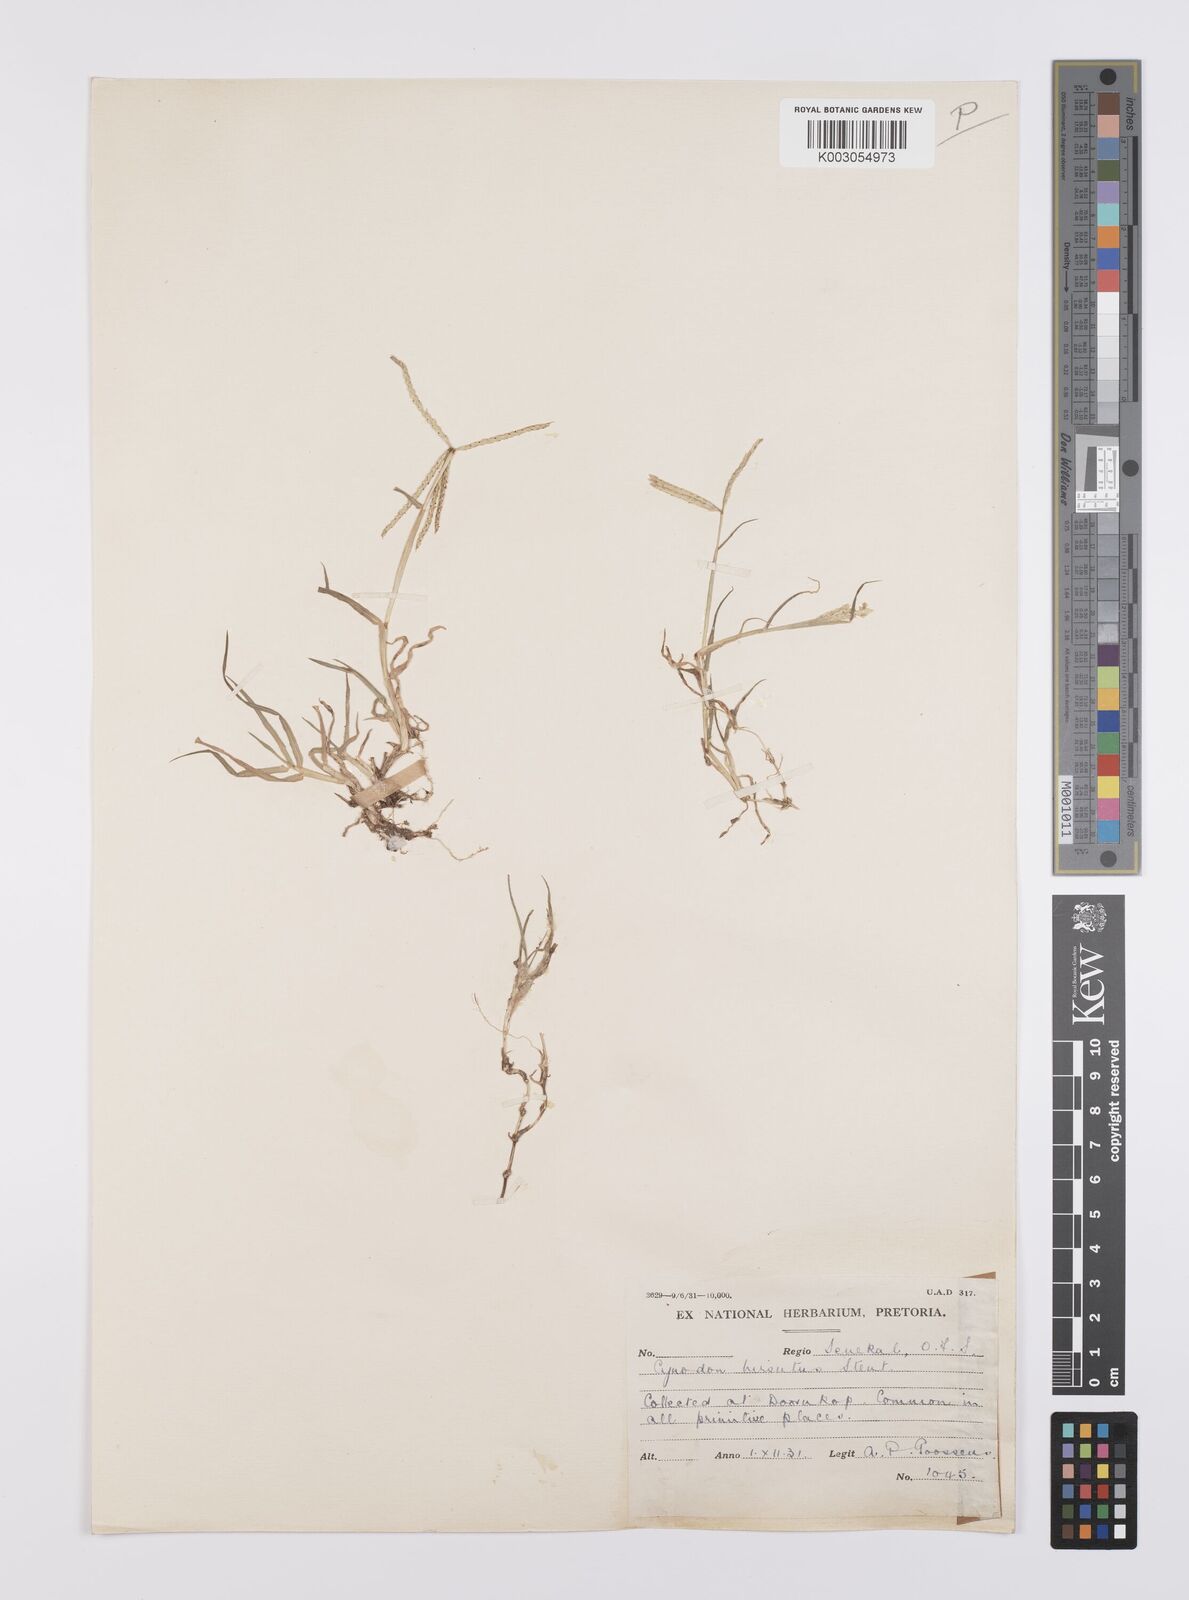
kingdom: Plantae
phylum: Tracheophyta
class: Liliopsida
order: Poales
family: Poaceae
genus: Cynodon
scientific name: Cynodon incompletus
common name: African bermuda-grass
